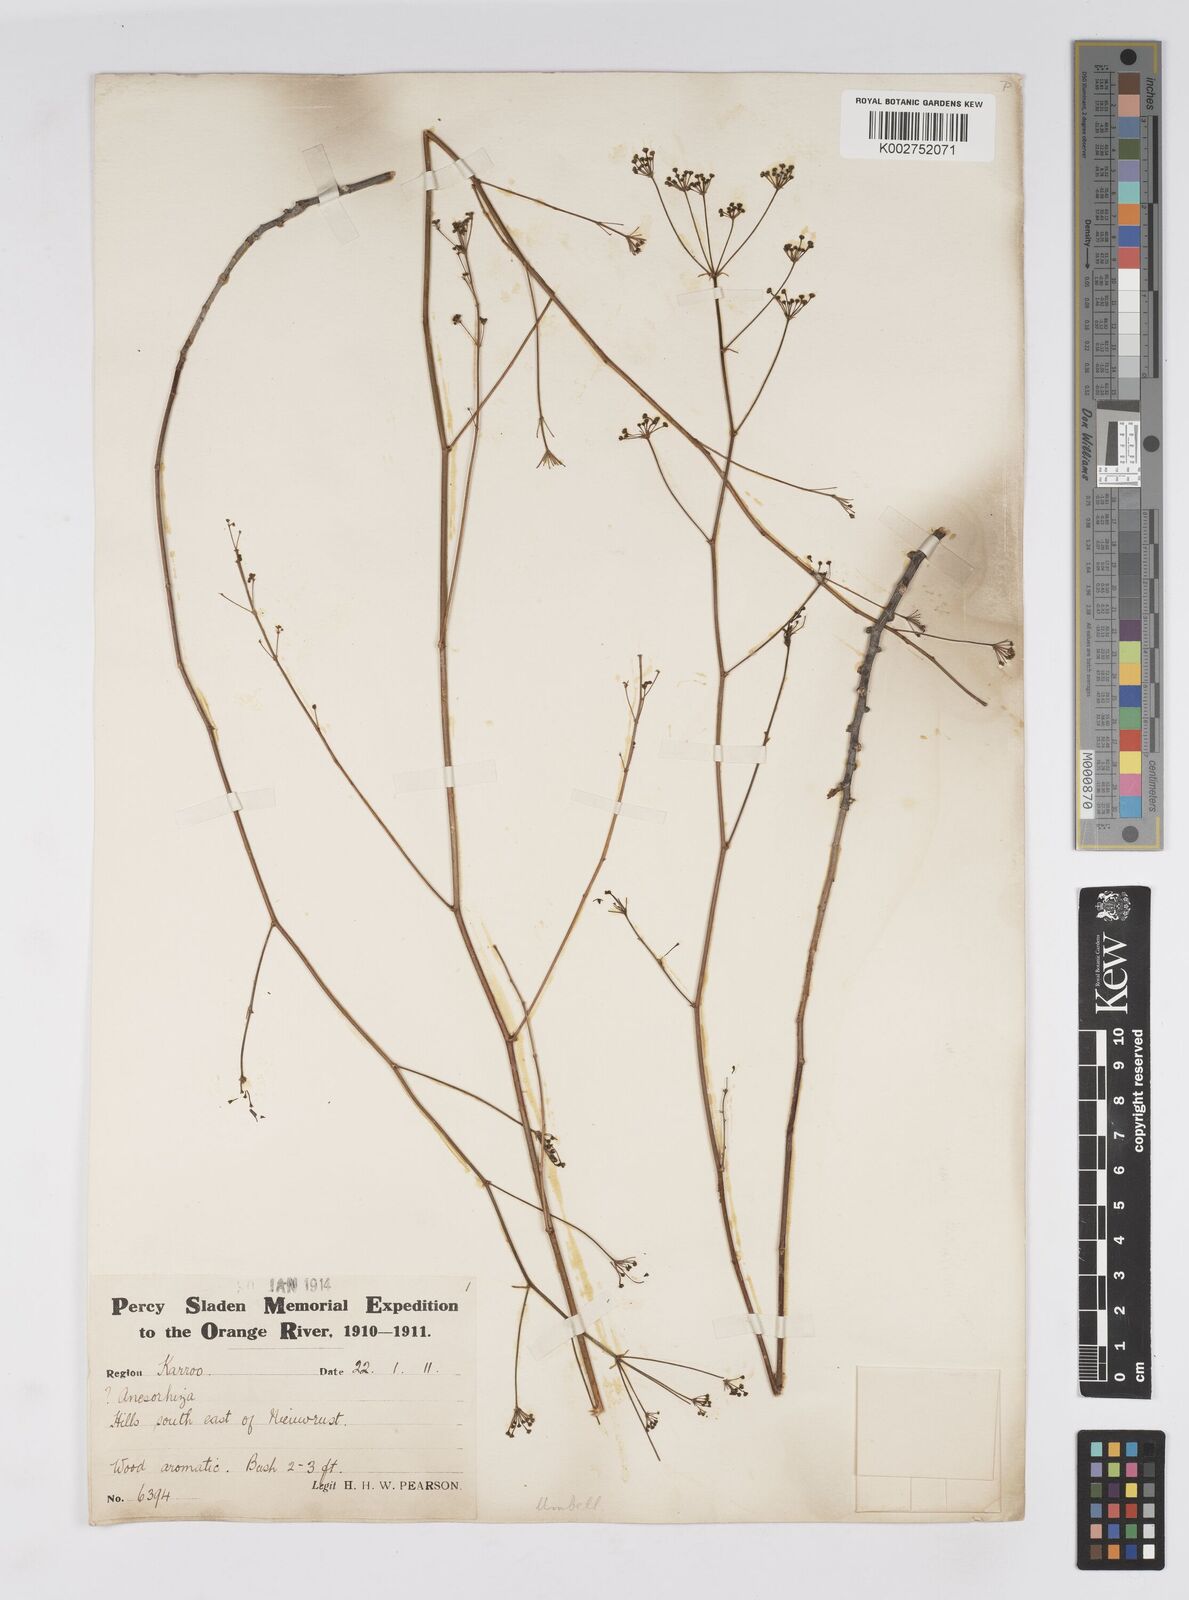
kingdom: Plantae
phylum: Tracheophyta
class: Magnoliopsida
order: Apiales
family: Apiaceae
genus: Anginon
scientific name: Anginon verticillatum
